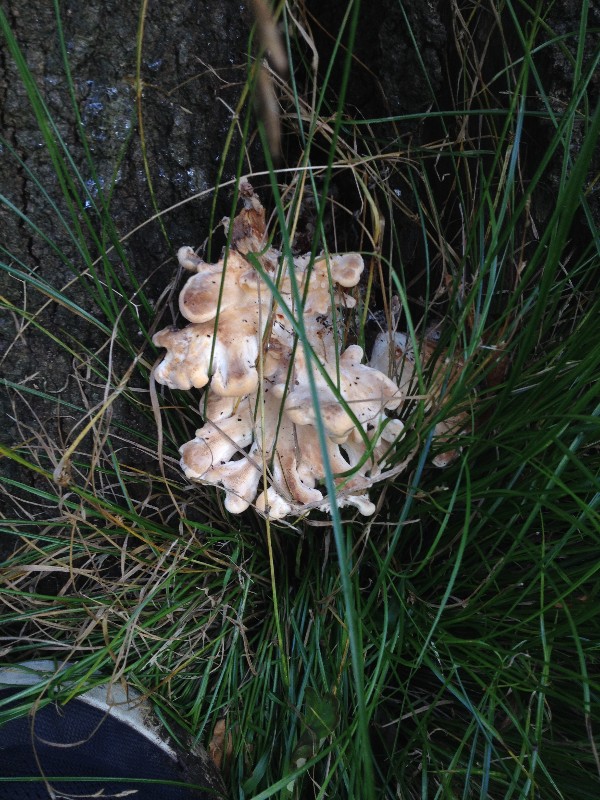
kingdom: Fungi
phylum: Basidiomycota
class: Agaricomycetes
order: Polyporales
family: Meripilaceae
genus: Meripilus
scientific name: Meripilus giganteus
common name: kæmpeporesvamp
